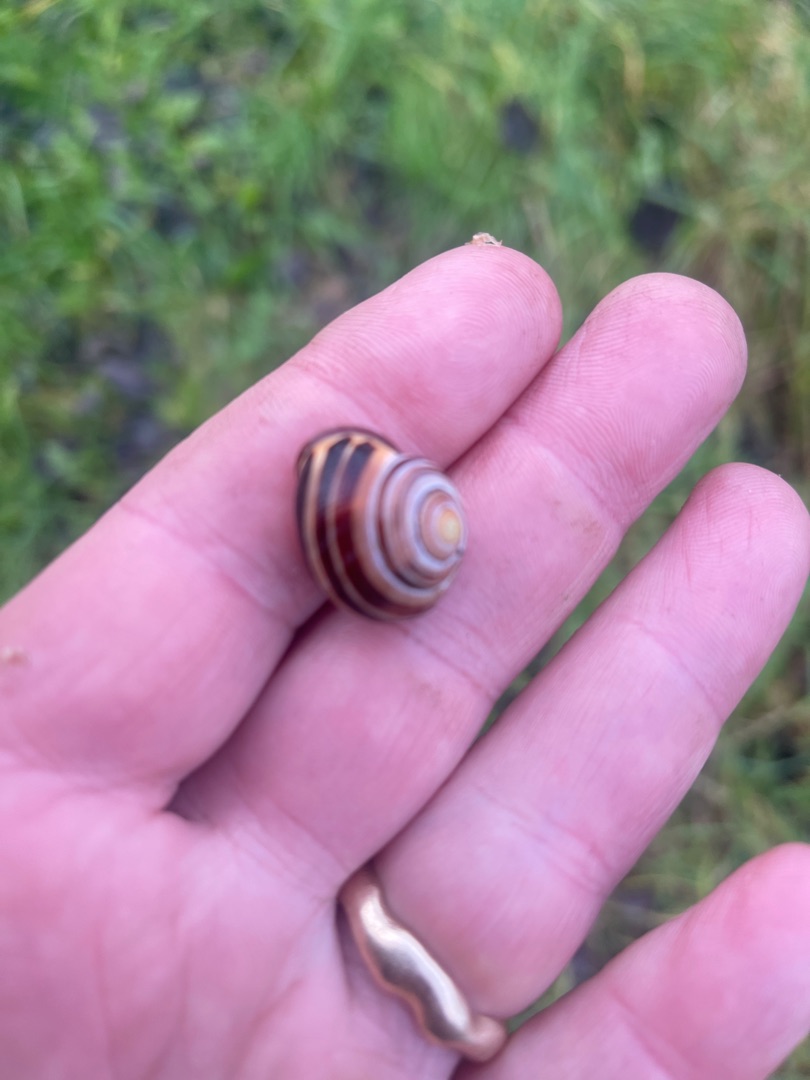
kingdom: Animalia
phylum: Mollusca
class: Gastropoda
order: Stylommatophora
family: Helicidae
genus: Cepaea
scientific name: Cepaea nemoralis
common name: Lundsnegl
